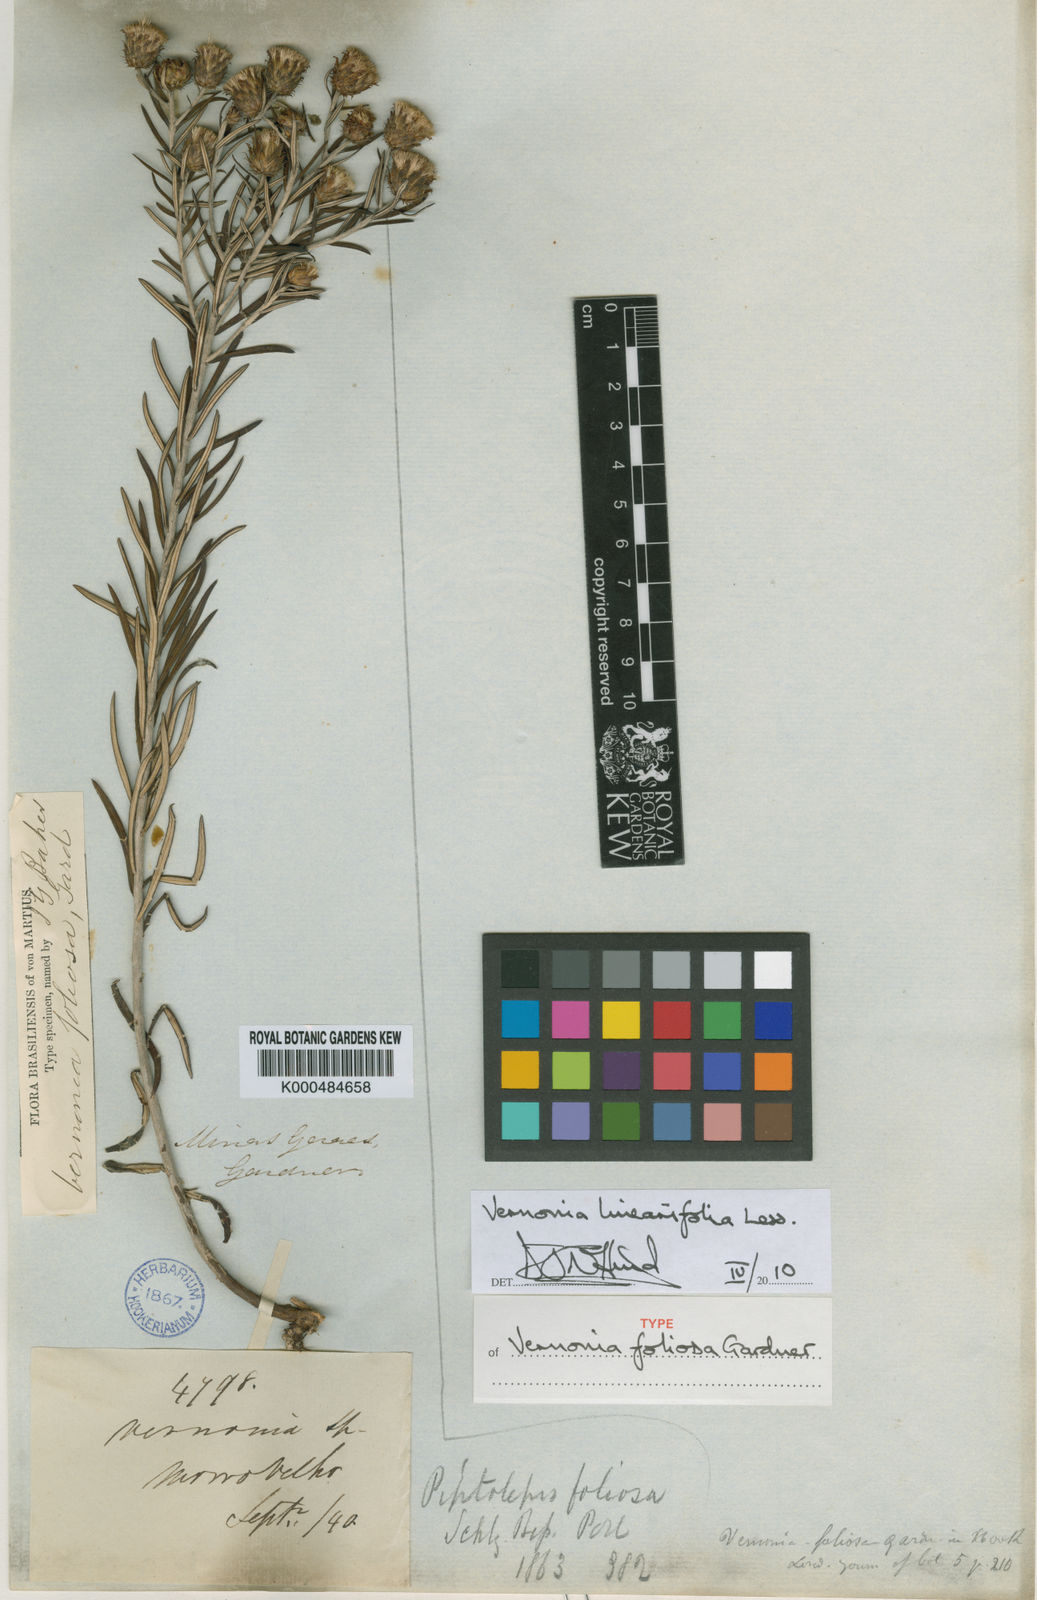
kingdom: Plantae
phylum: Tracheophyta
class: Magnoliopsida
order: Asterales
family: Asteraceae
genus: Lessingianthus
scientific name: Lessingianthus linearifolius
